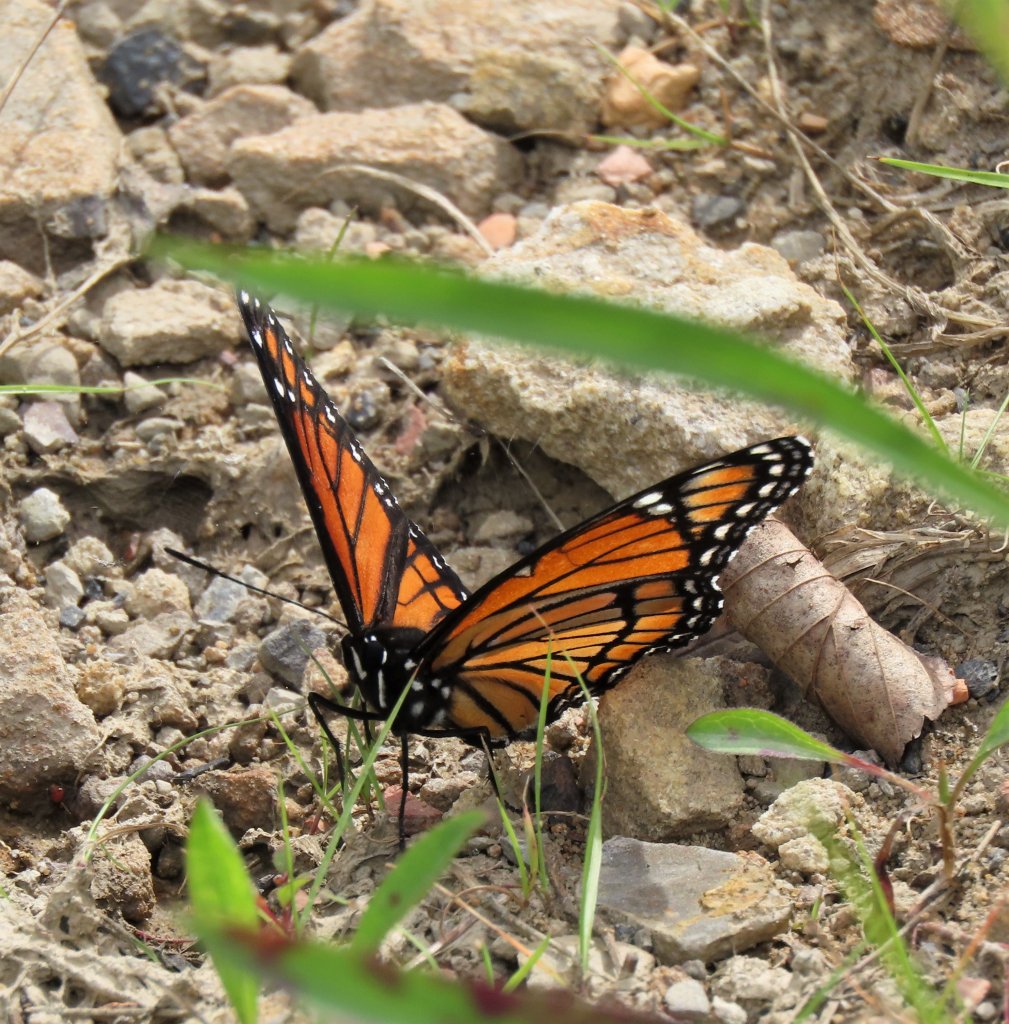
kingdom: Animalia
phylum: Arthropoda
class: Insecta
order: Lepidoptera
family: Nymphalidae
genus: Limenitis
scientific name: Limenitis archippus
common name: Viceroy
